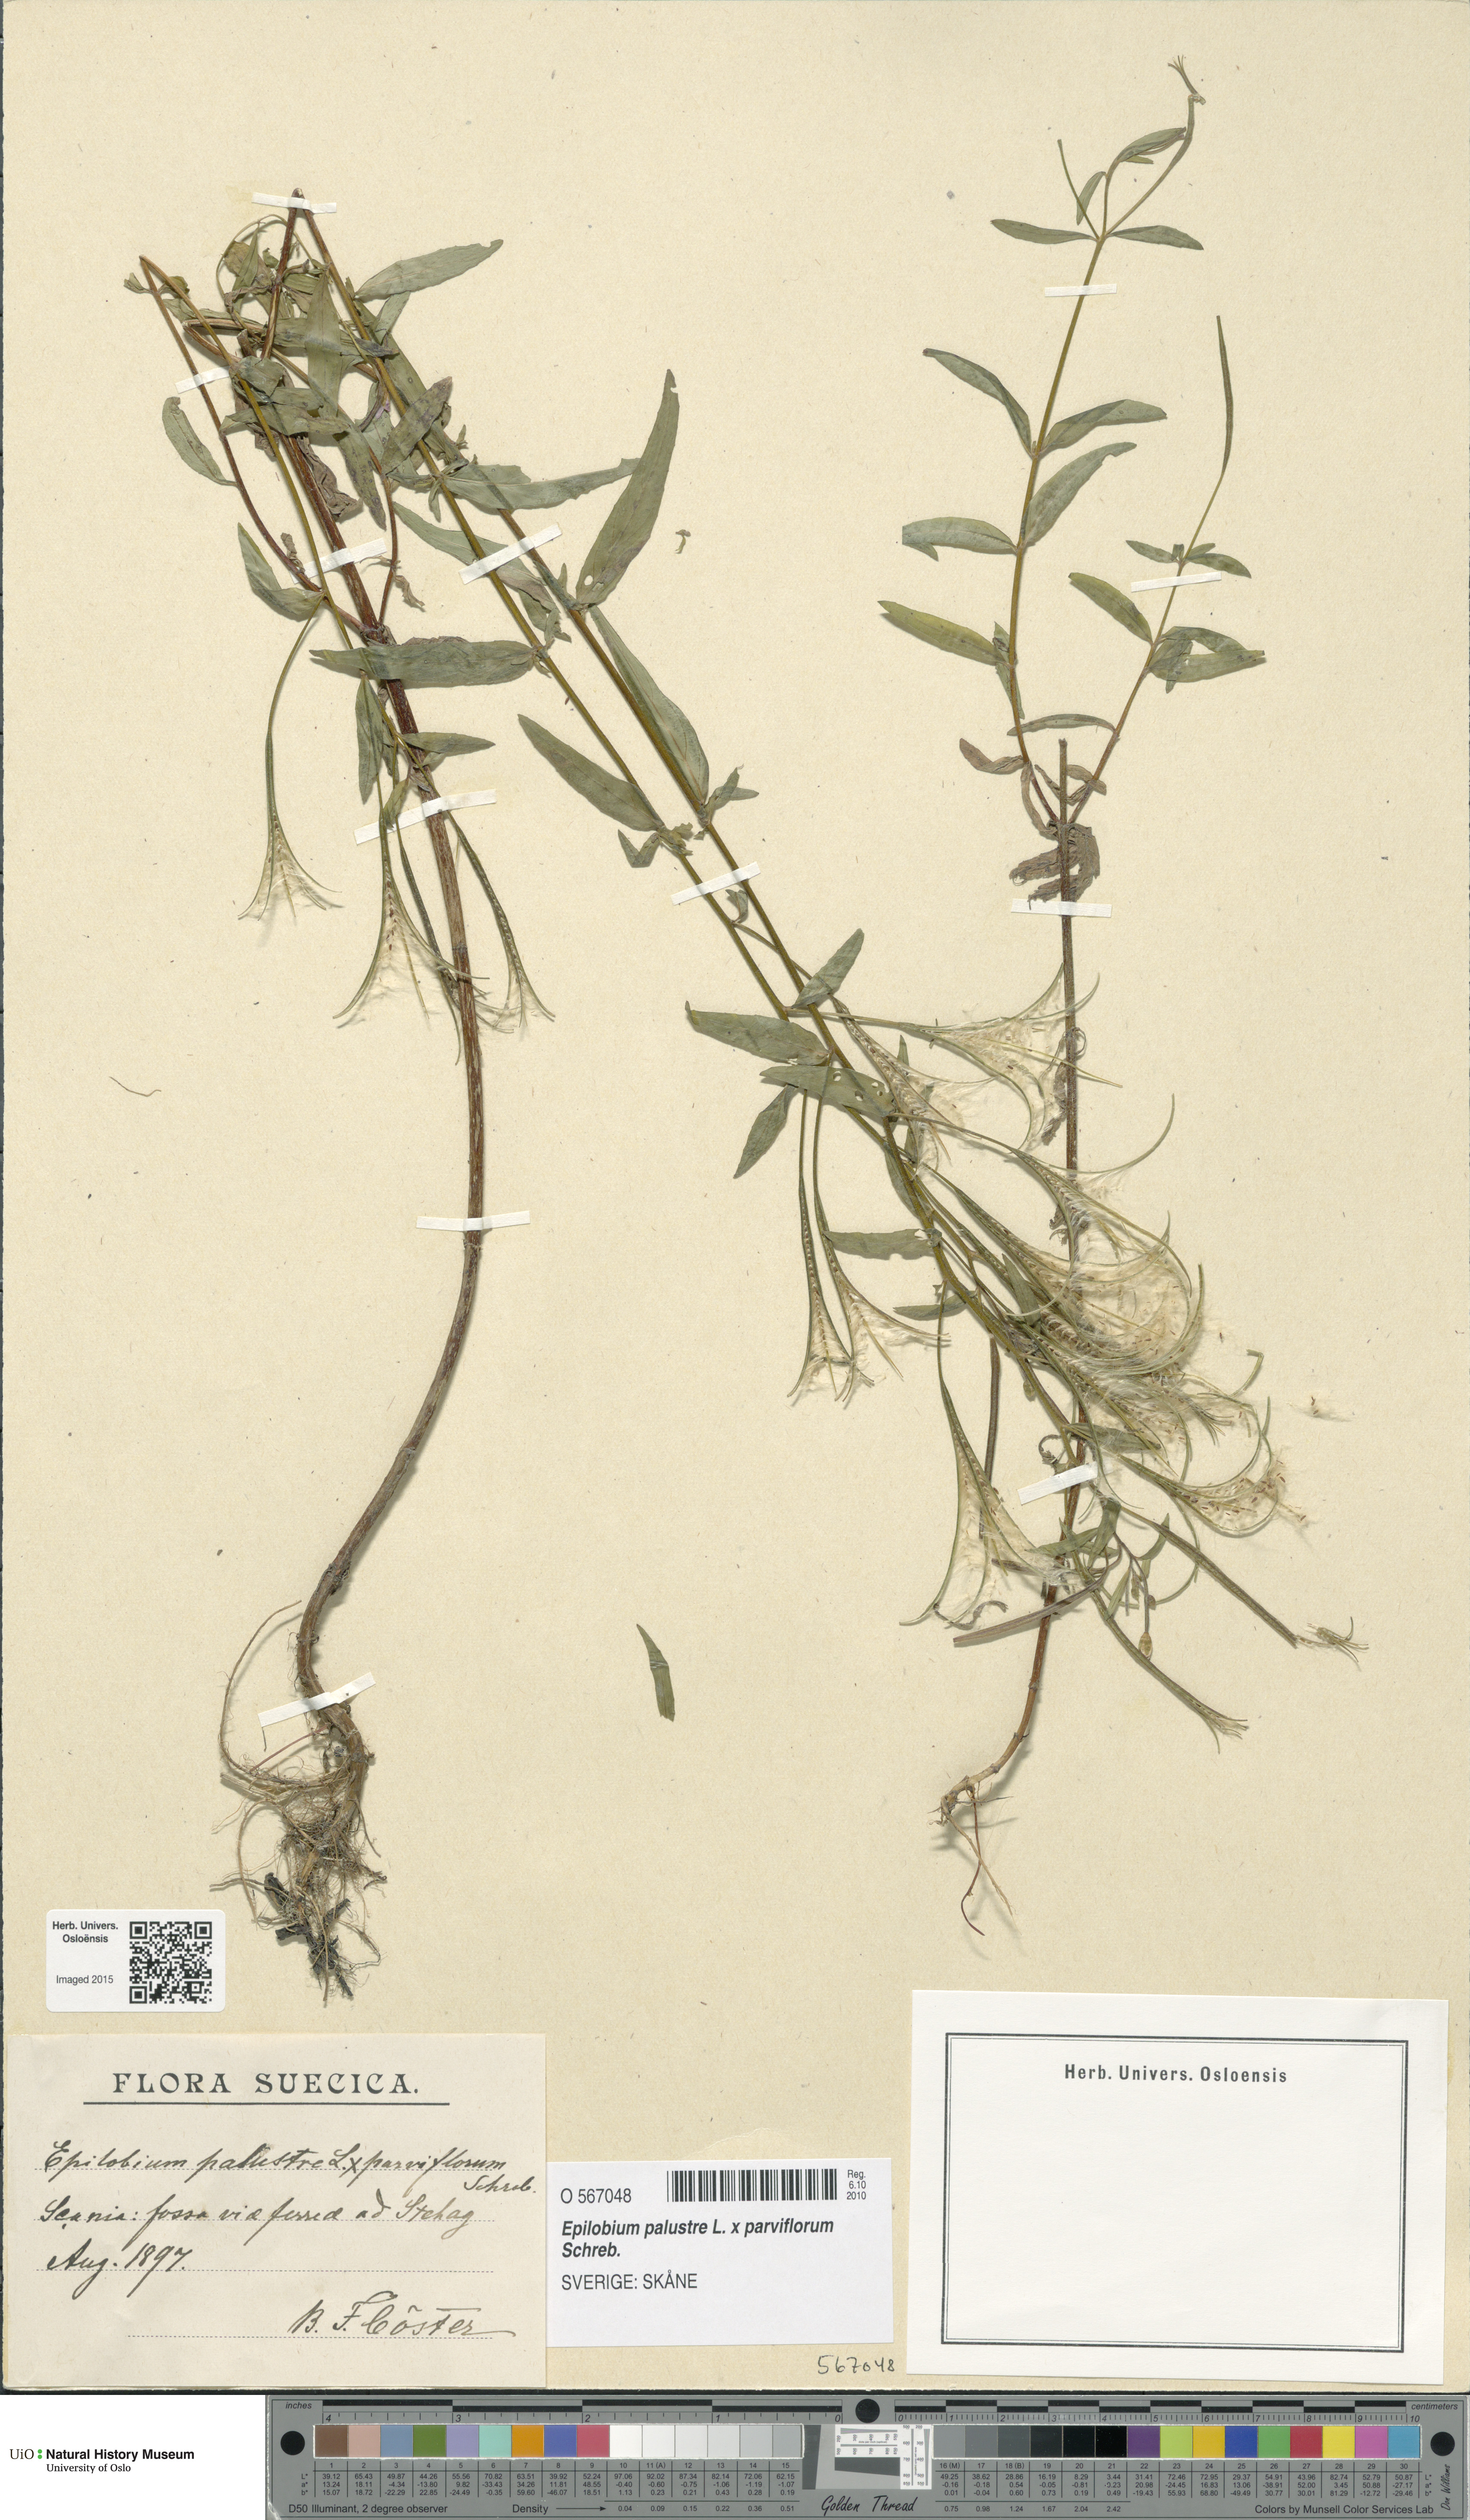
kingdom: Plantae
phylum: Tracheophyta
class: Magnoliopsida
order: Myrtales
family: Onagraceae
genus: Epilobium
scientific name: Epilobium
